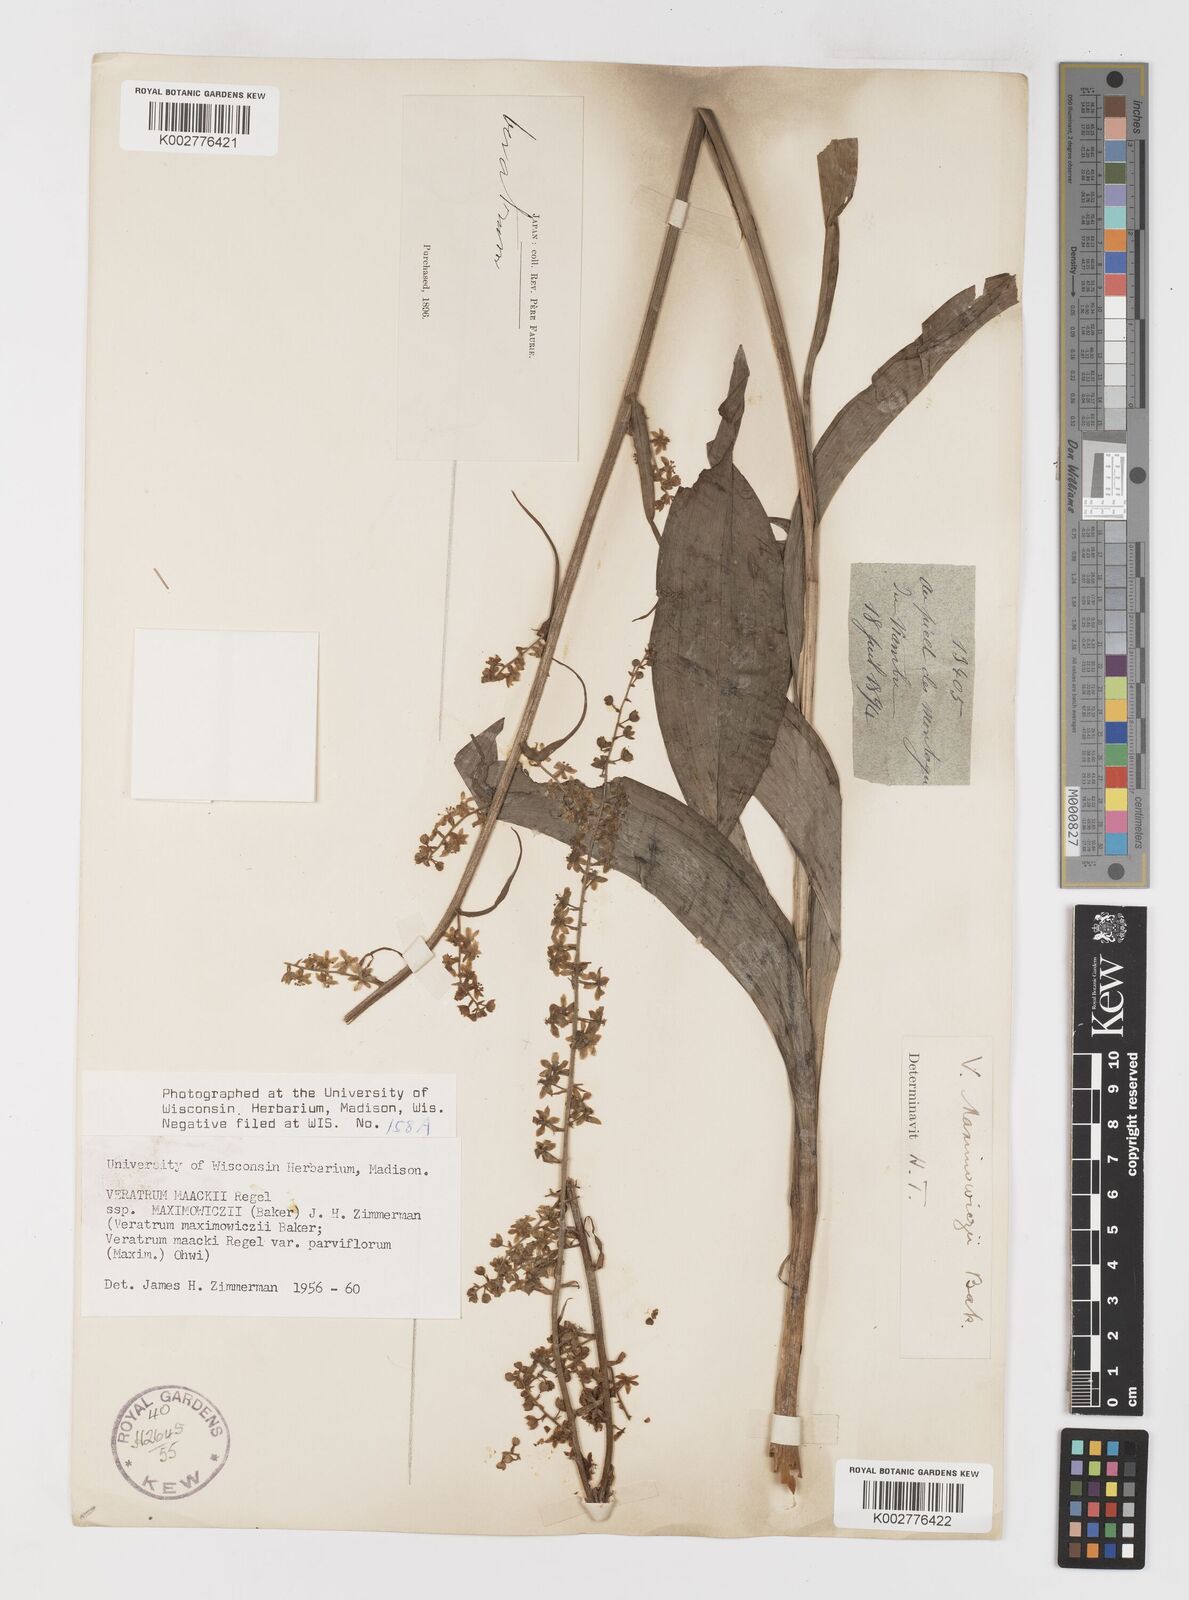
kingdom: Plantae
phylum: Tracheophyta
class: Liliopsida
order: Liliales
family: Melanthiaceae
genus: Veratrum
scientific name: Veratrum maackii
